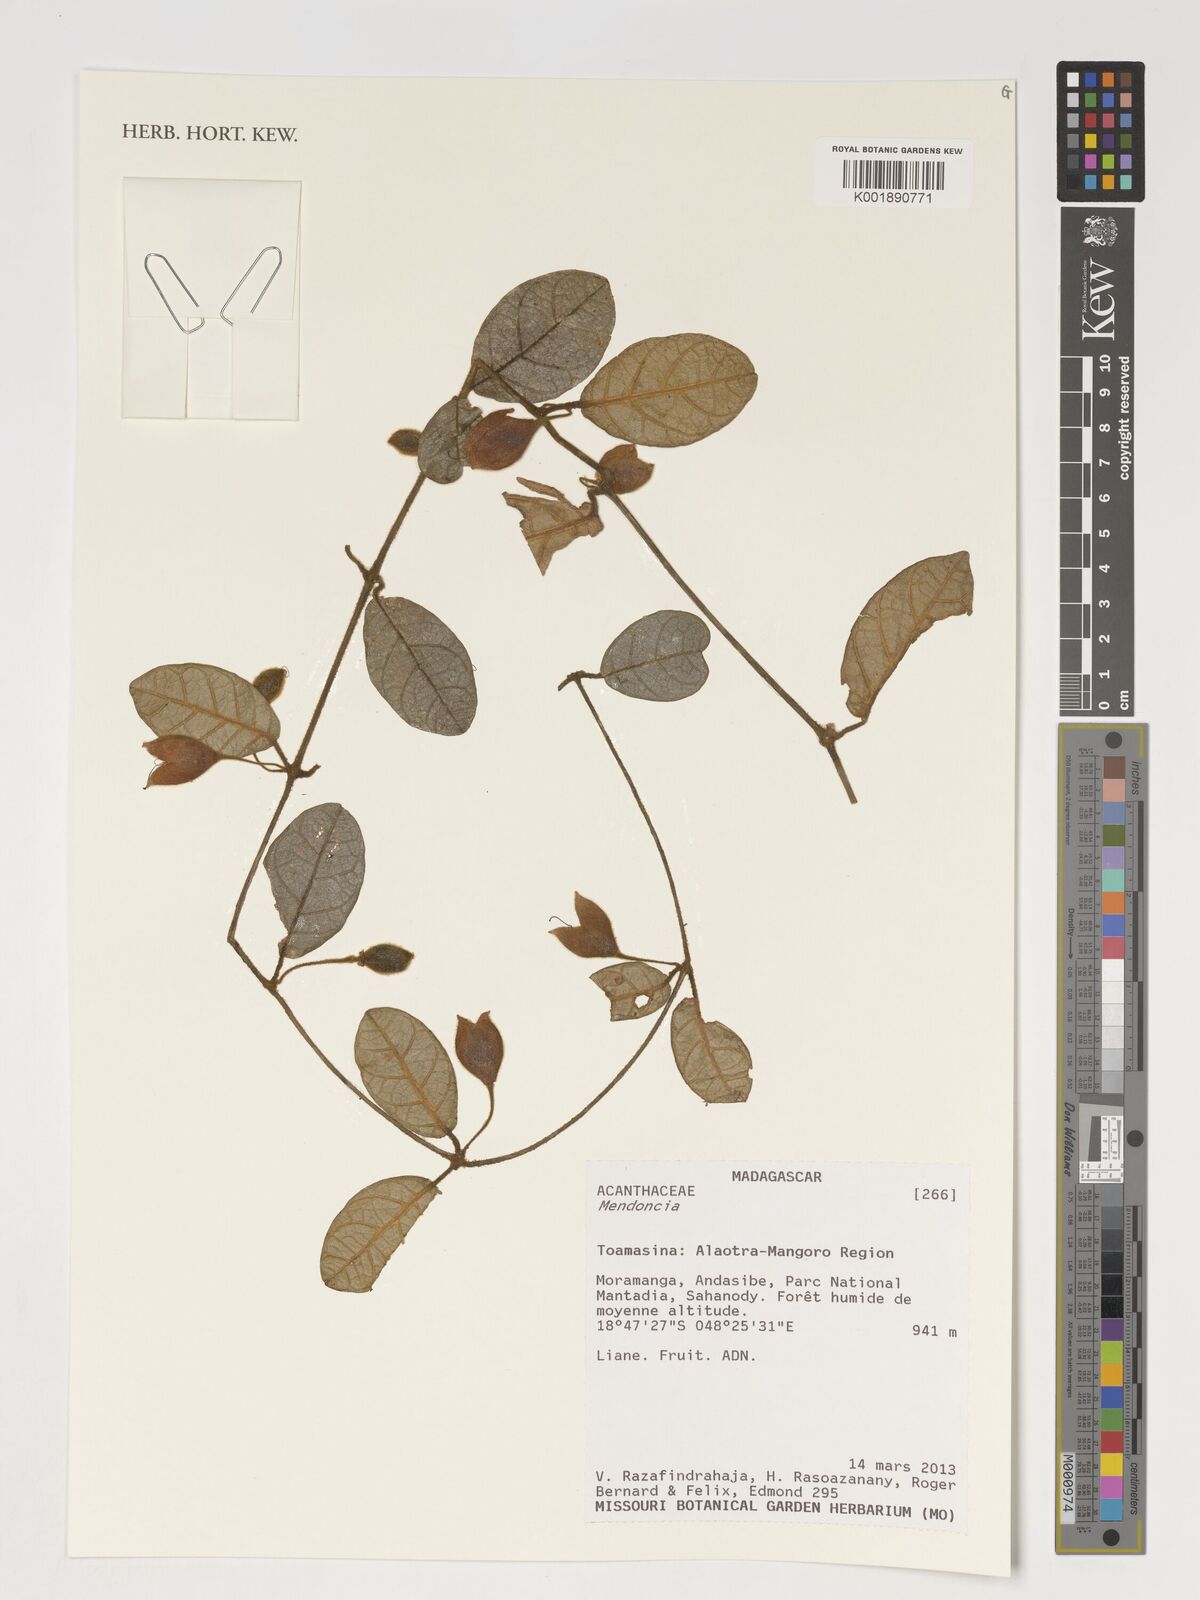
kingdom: Plantae
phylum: Tracheophyta
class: Magnoliopsida
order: Lamiales
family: Acanthaceae
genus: Mendoncia
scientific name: Mendoncia
